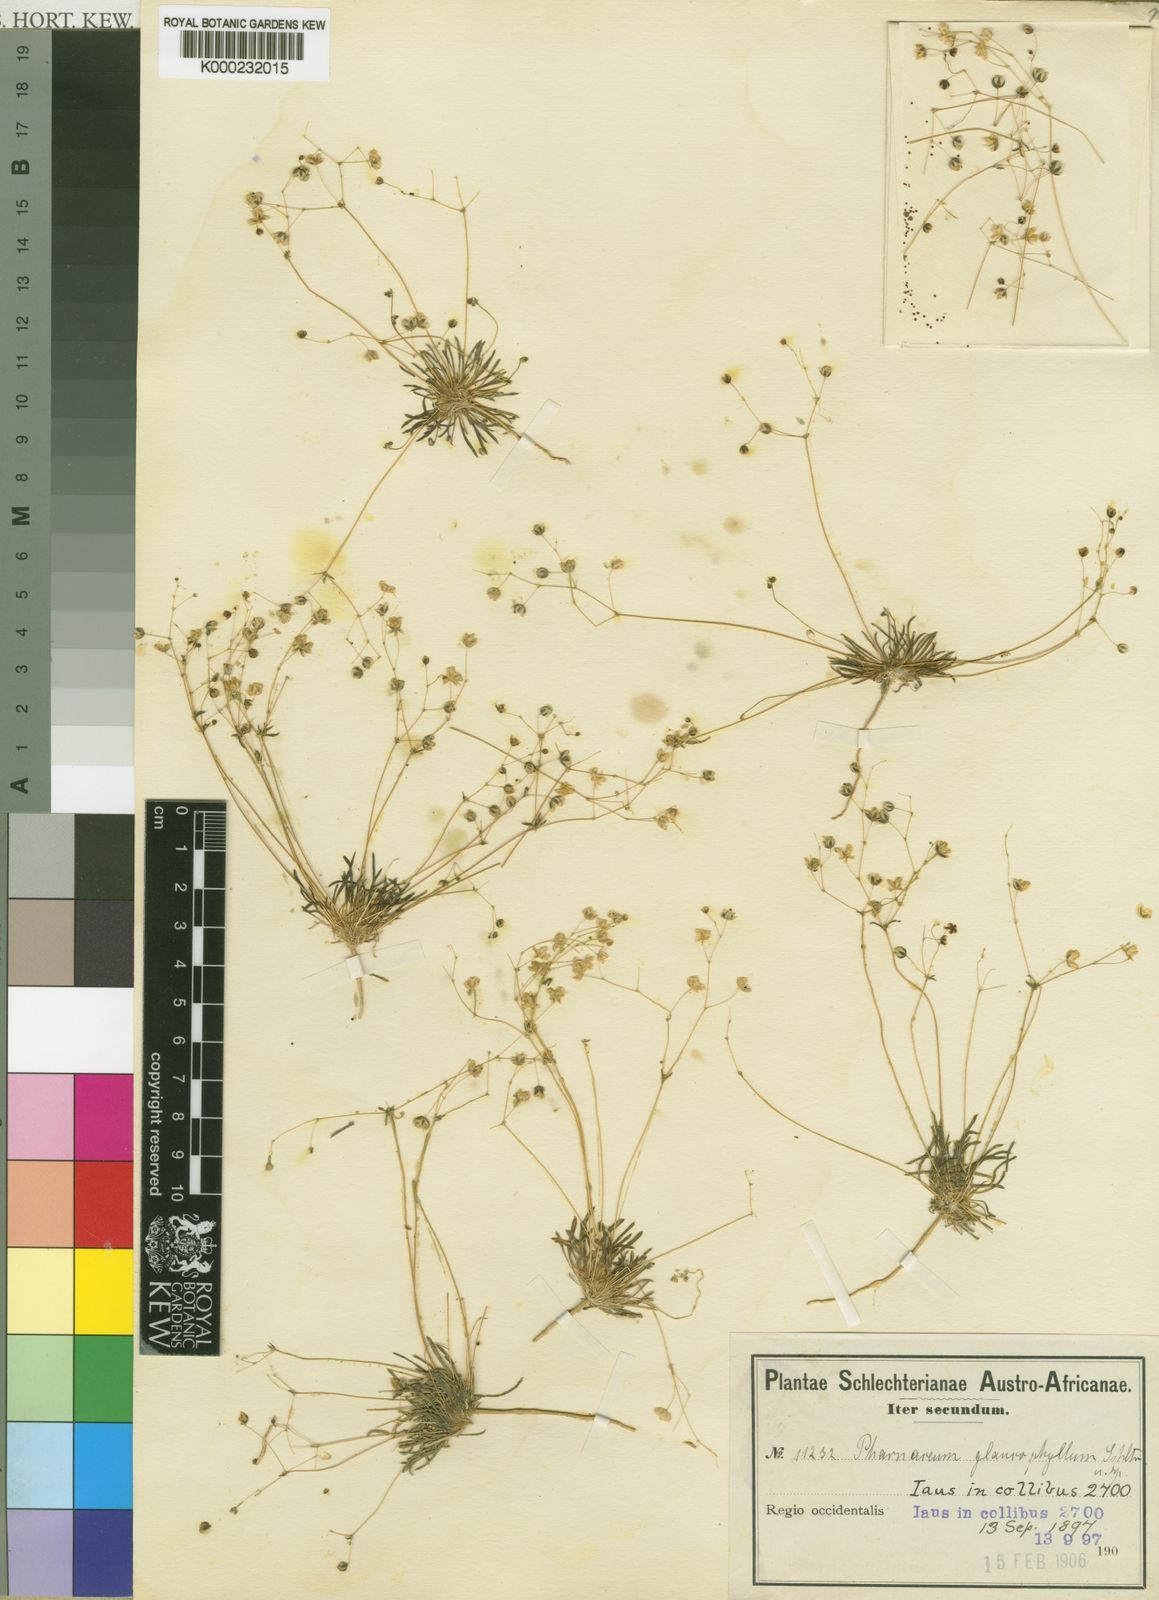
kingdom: Plantae
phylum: Tracheophyta
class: Magnoliopsida
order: Caryophyllales
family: Molluginaceae
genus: Pharnaceum
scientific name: Pharnaceum croceum
